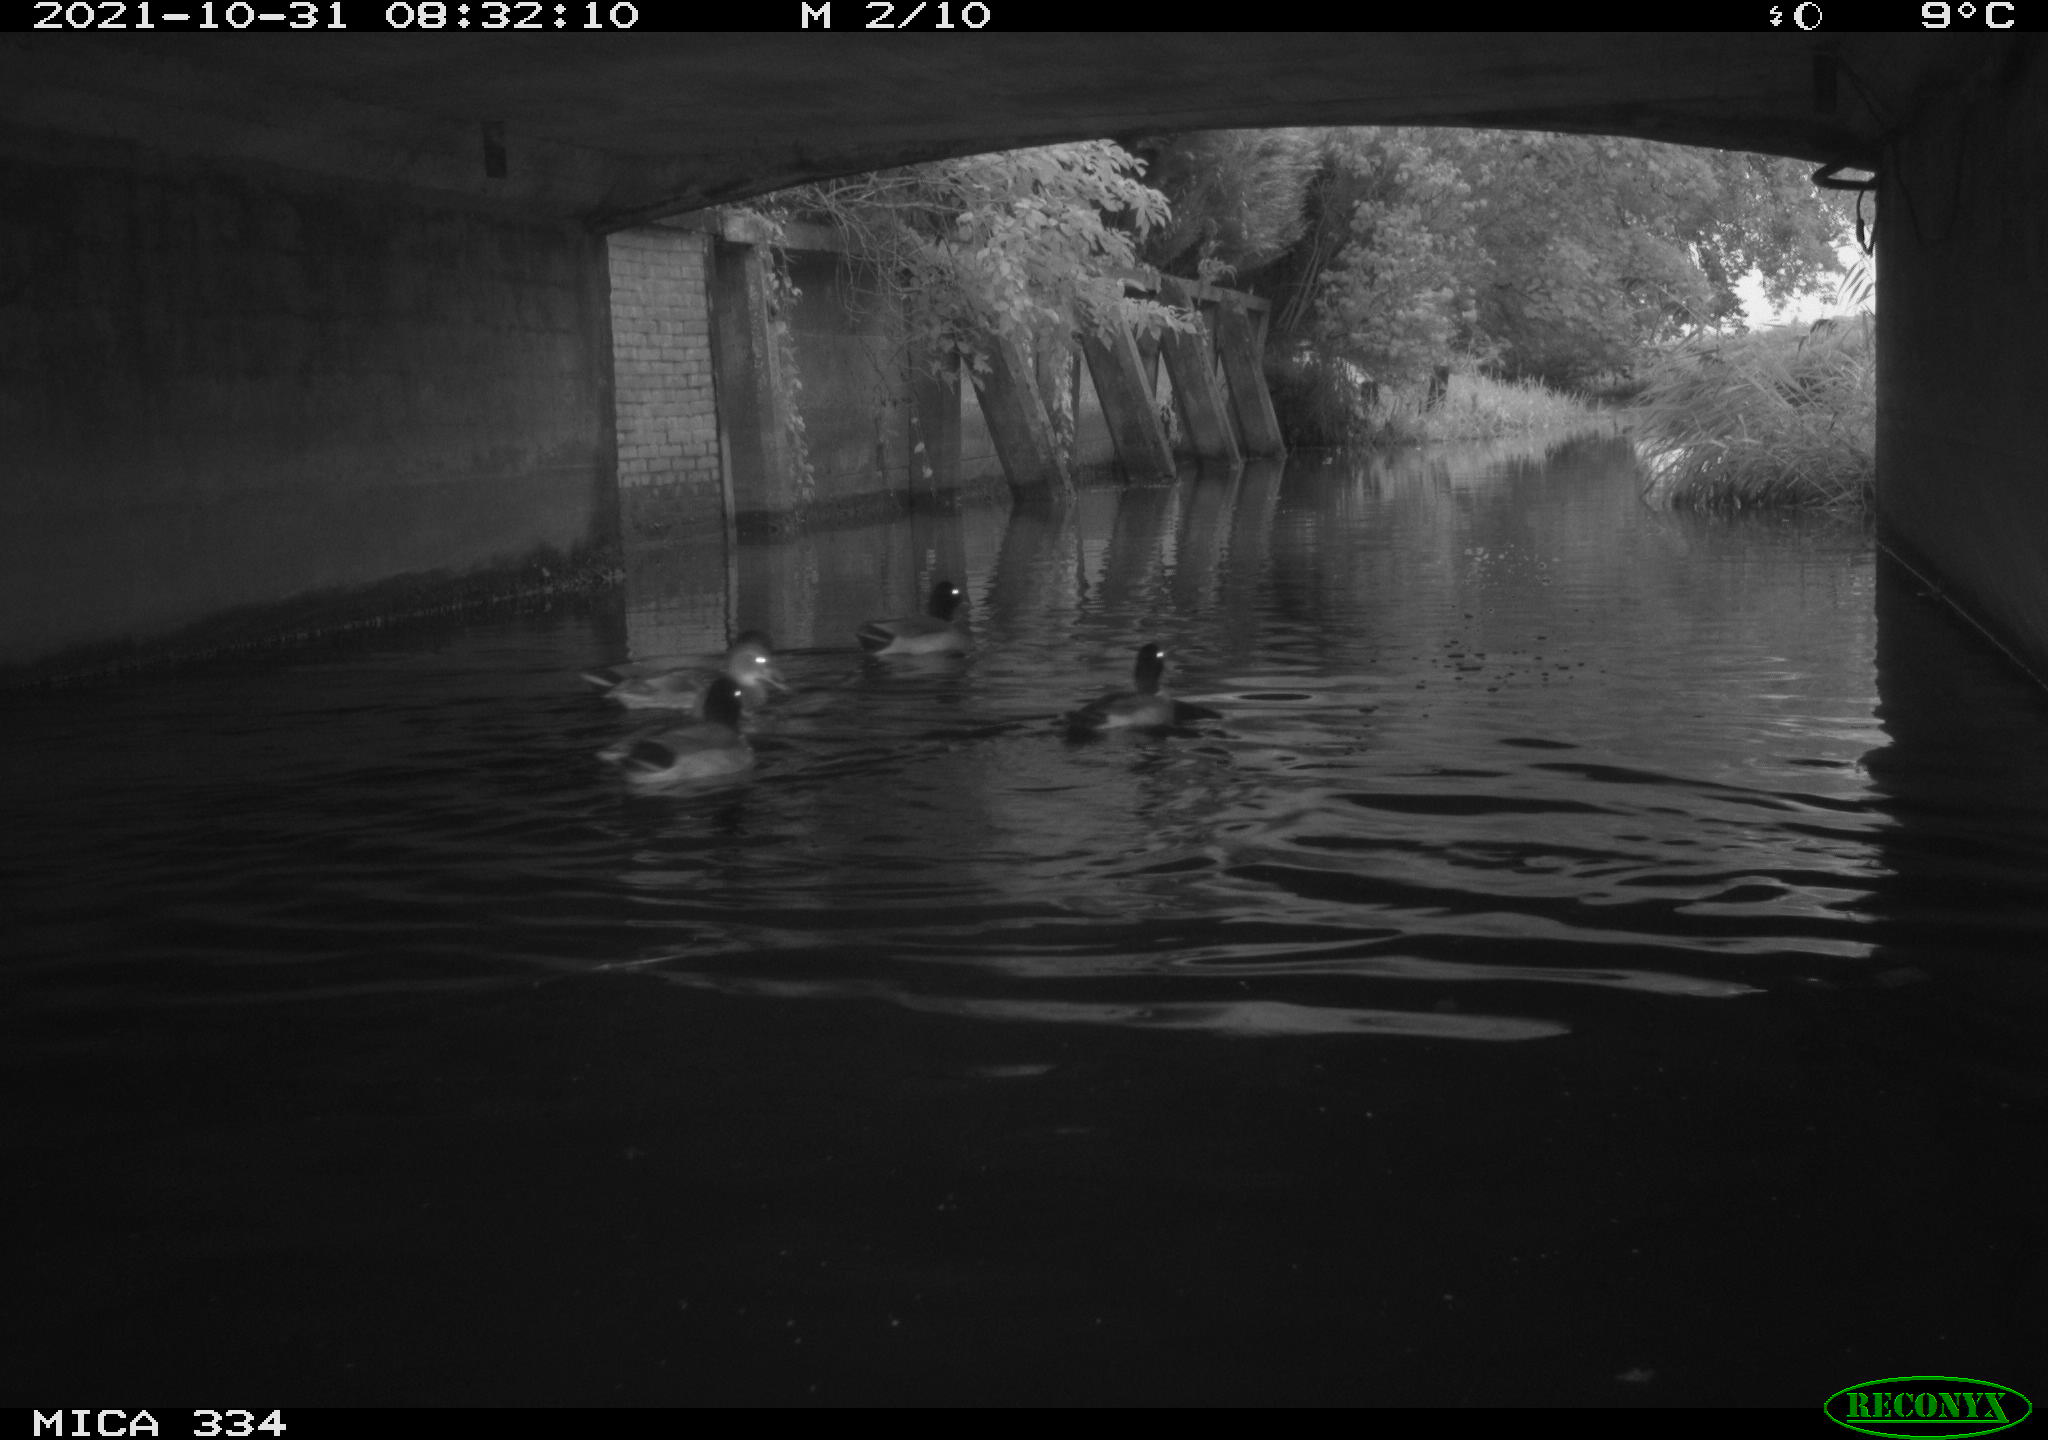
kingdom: Animalia
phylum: Chordata
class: Aves
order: Anseriformes
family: Anatidae
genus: Anas
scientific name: Anas platyrhynchos
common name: Mallard
